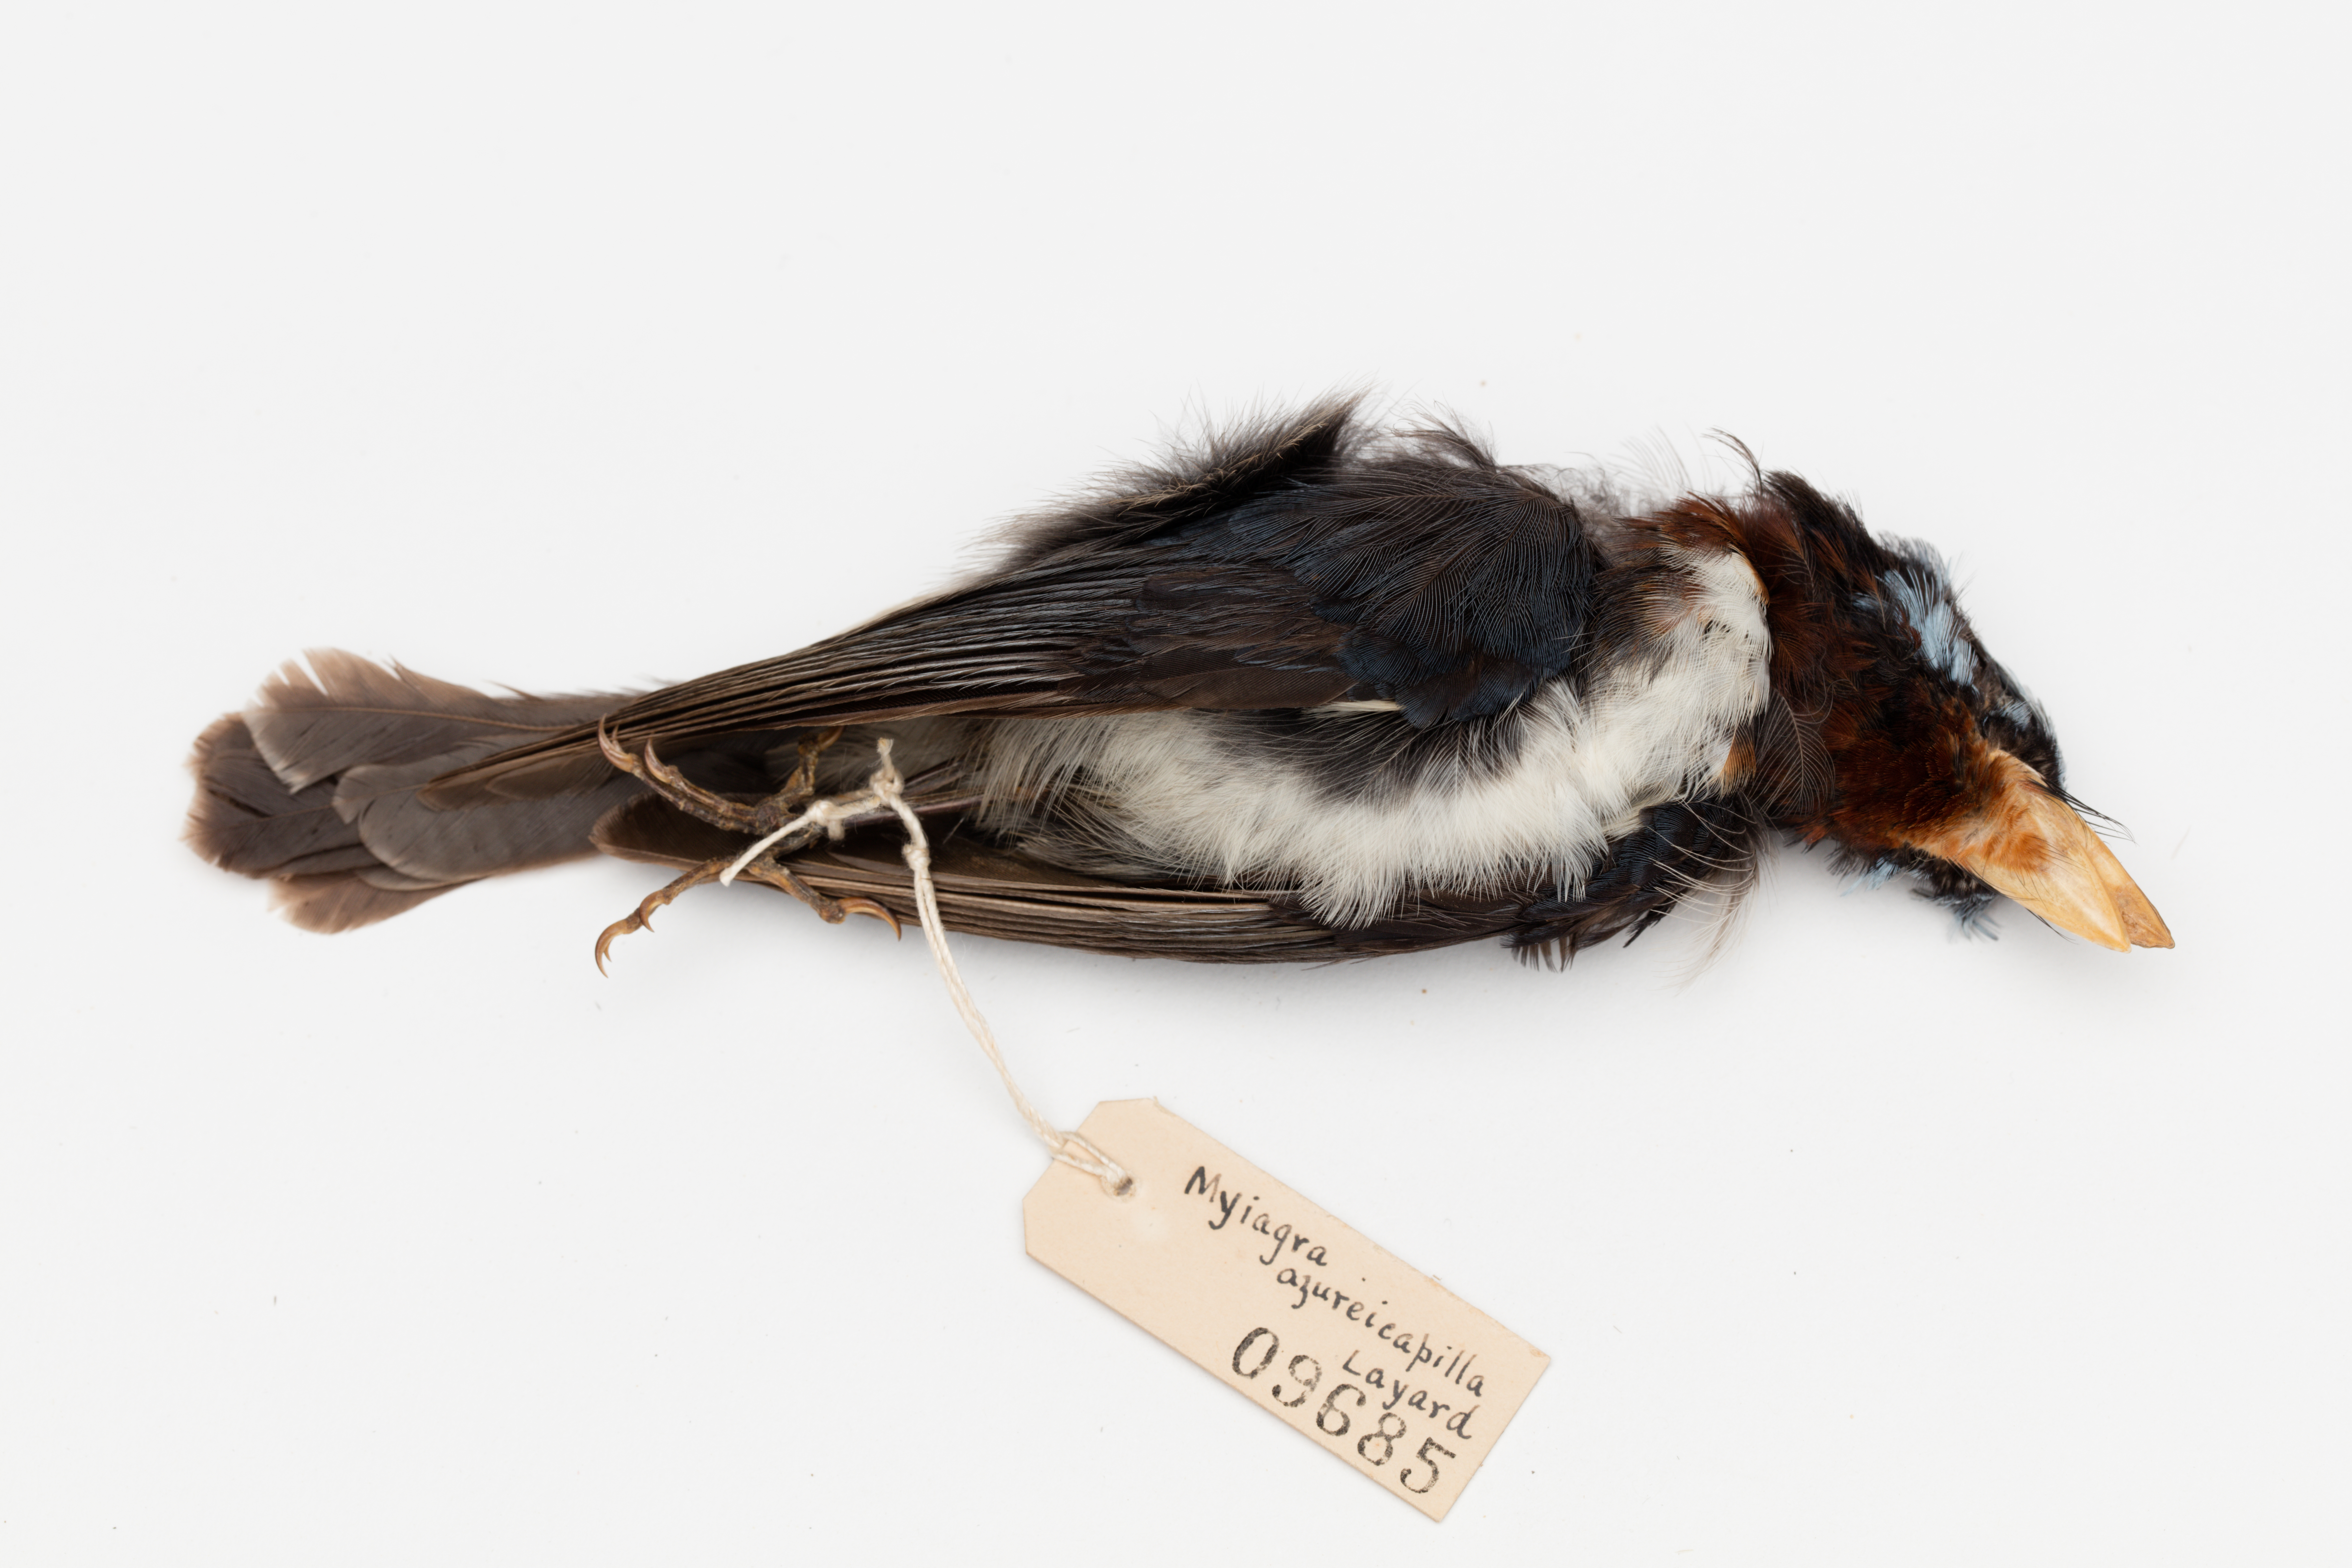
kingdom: Animalia
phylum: Chordata
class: Aves
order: Passeriformes
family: Monarchidae
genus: Myiagra
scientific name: Myiagra azureocapilla
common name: Azure-crested flycatcher
